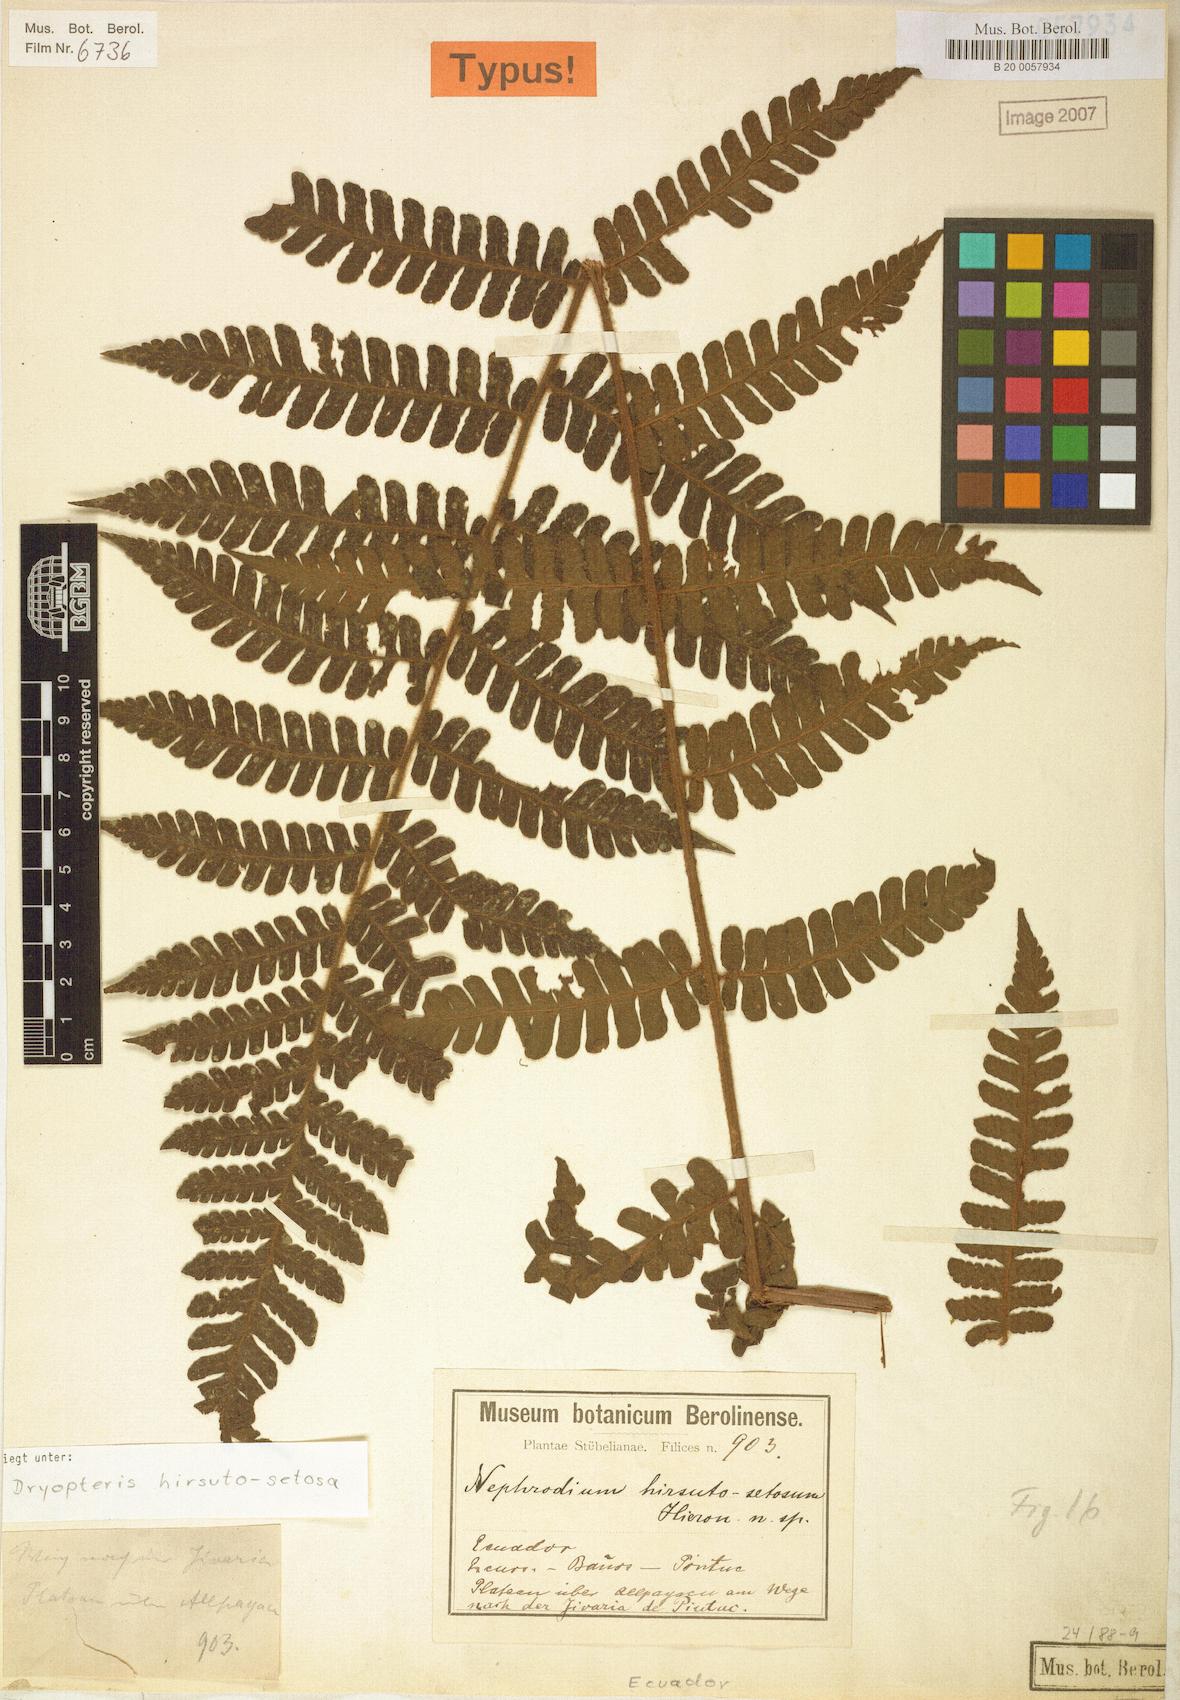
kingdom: Plantae
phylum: Tracheophyta
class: Polypodiopsida
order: Polypodiales
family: Dryopteridaceae
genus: Megalastrum
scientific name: Megalastrum hirsutosetosum
